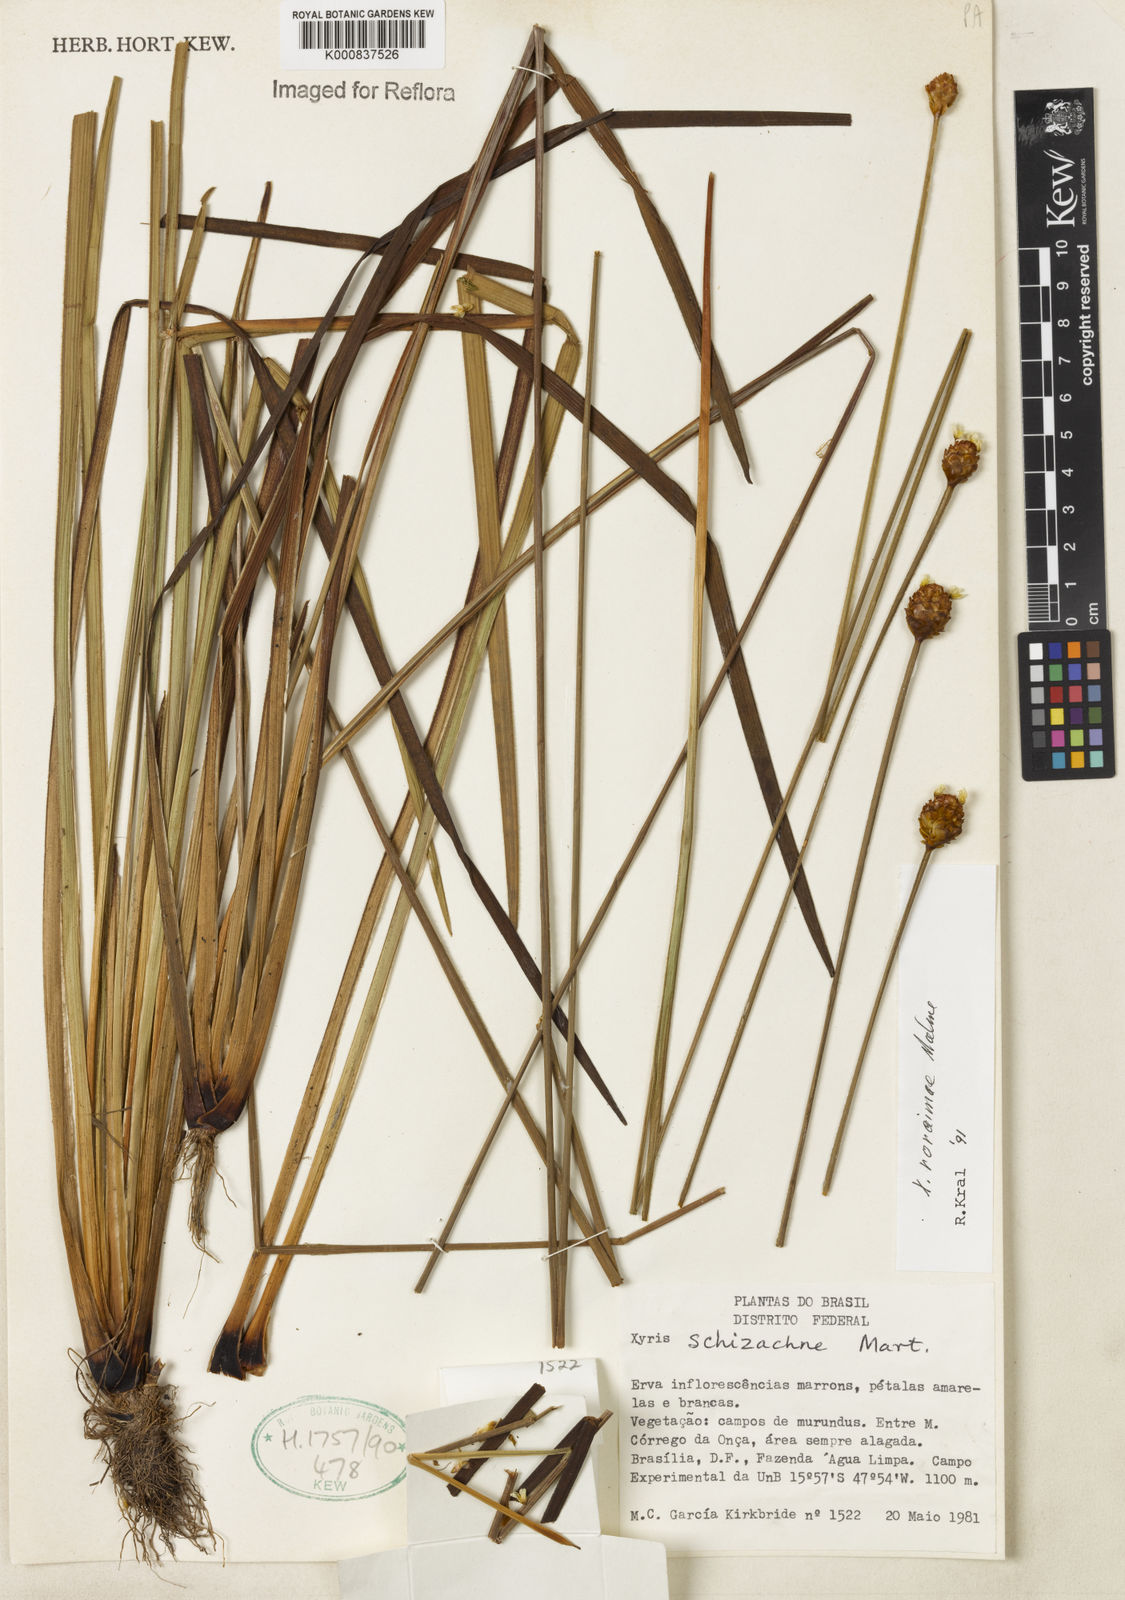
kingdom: Plantae
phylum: Tracheophyta
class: Liliopsida
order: Poales
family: Xyridaceae
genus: Xyris
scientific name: Xyris roraimae
